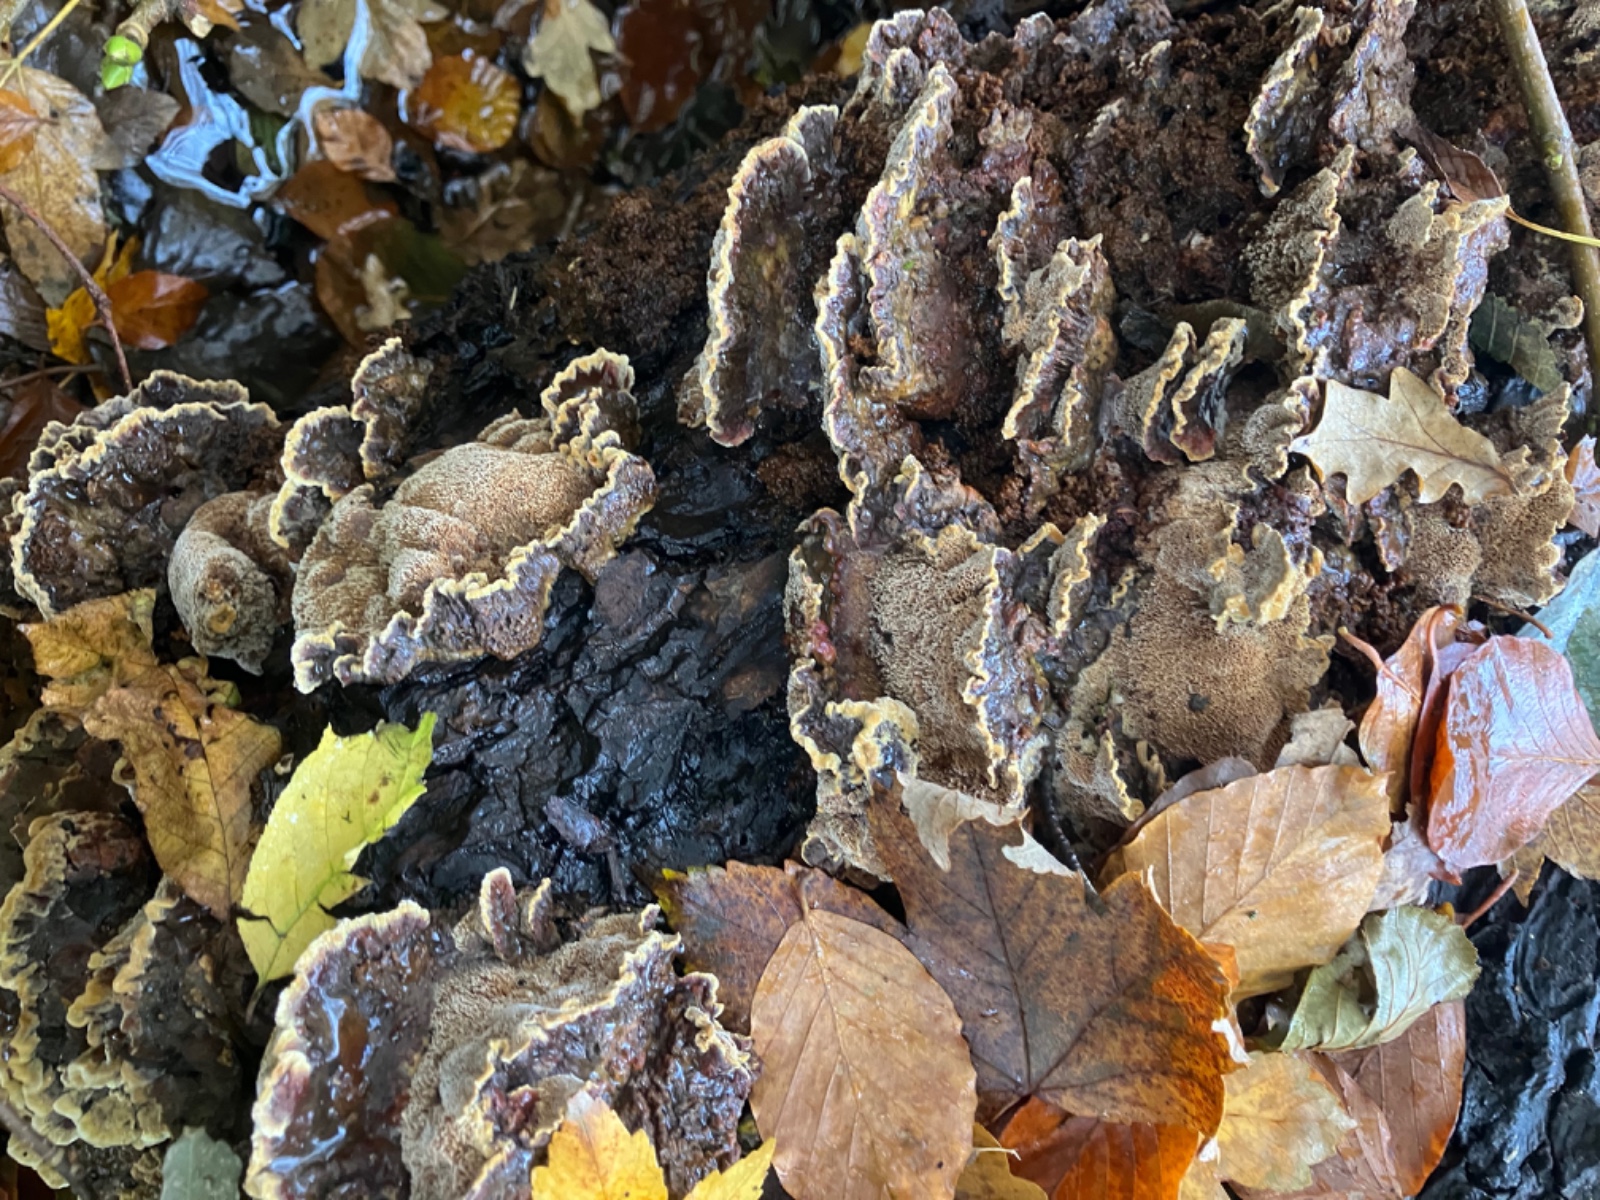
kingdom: Fungi
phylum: Basidiomycota
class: Agaricomycetes
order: Hymenochaetales
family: Hymenochaetaceae
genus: Xanthoporia
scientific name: Xanthoporia radiata
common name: elle-spejlporesvamp
